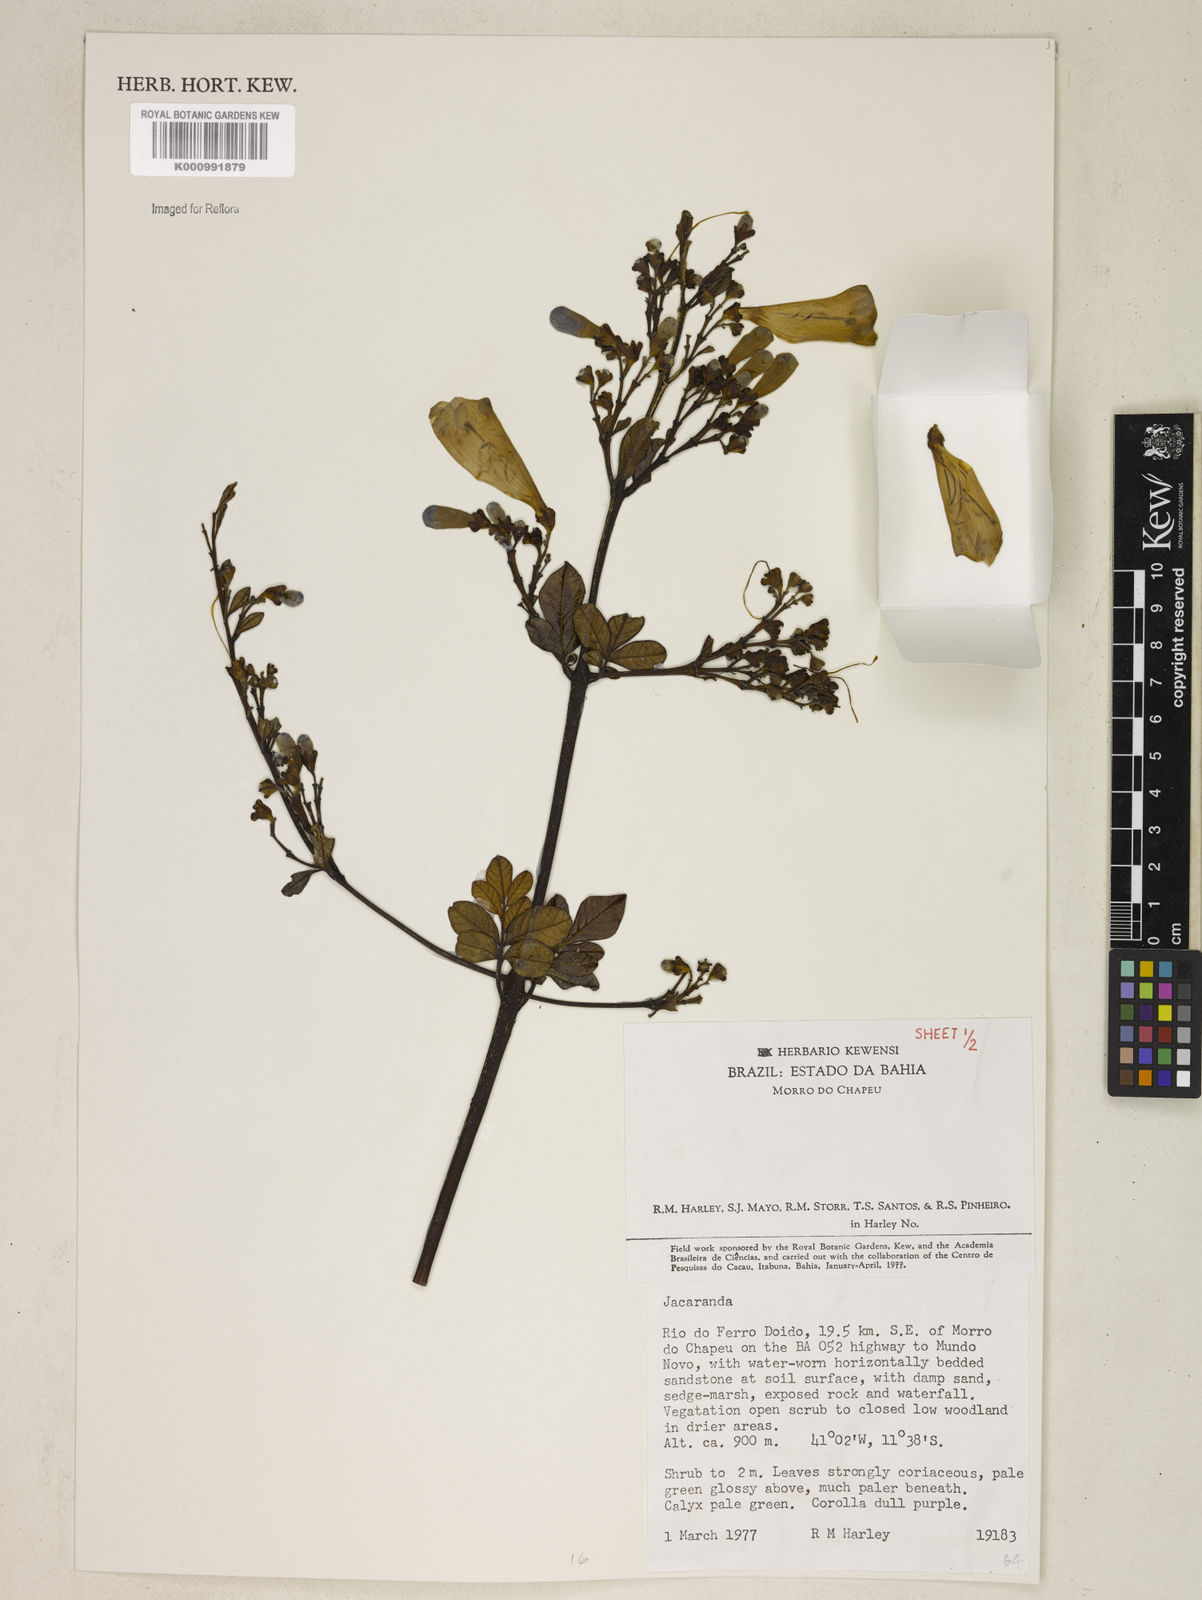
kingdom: Plantae
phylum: Tracheophyta
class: Magnoliopsida
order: Lamiales
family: Bignoniaceae
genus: Jacaranda
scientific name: Jacaranda
